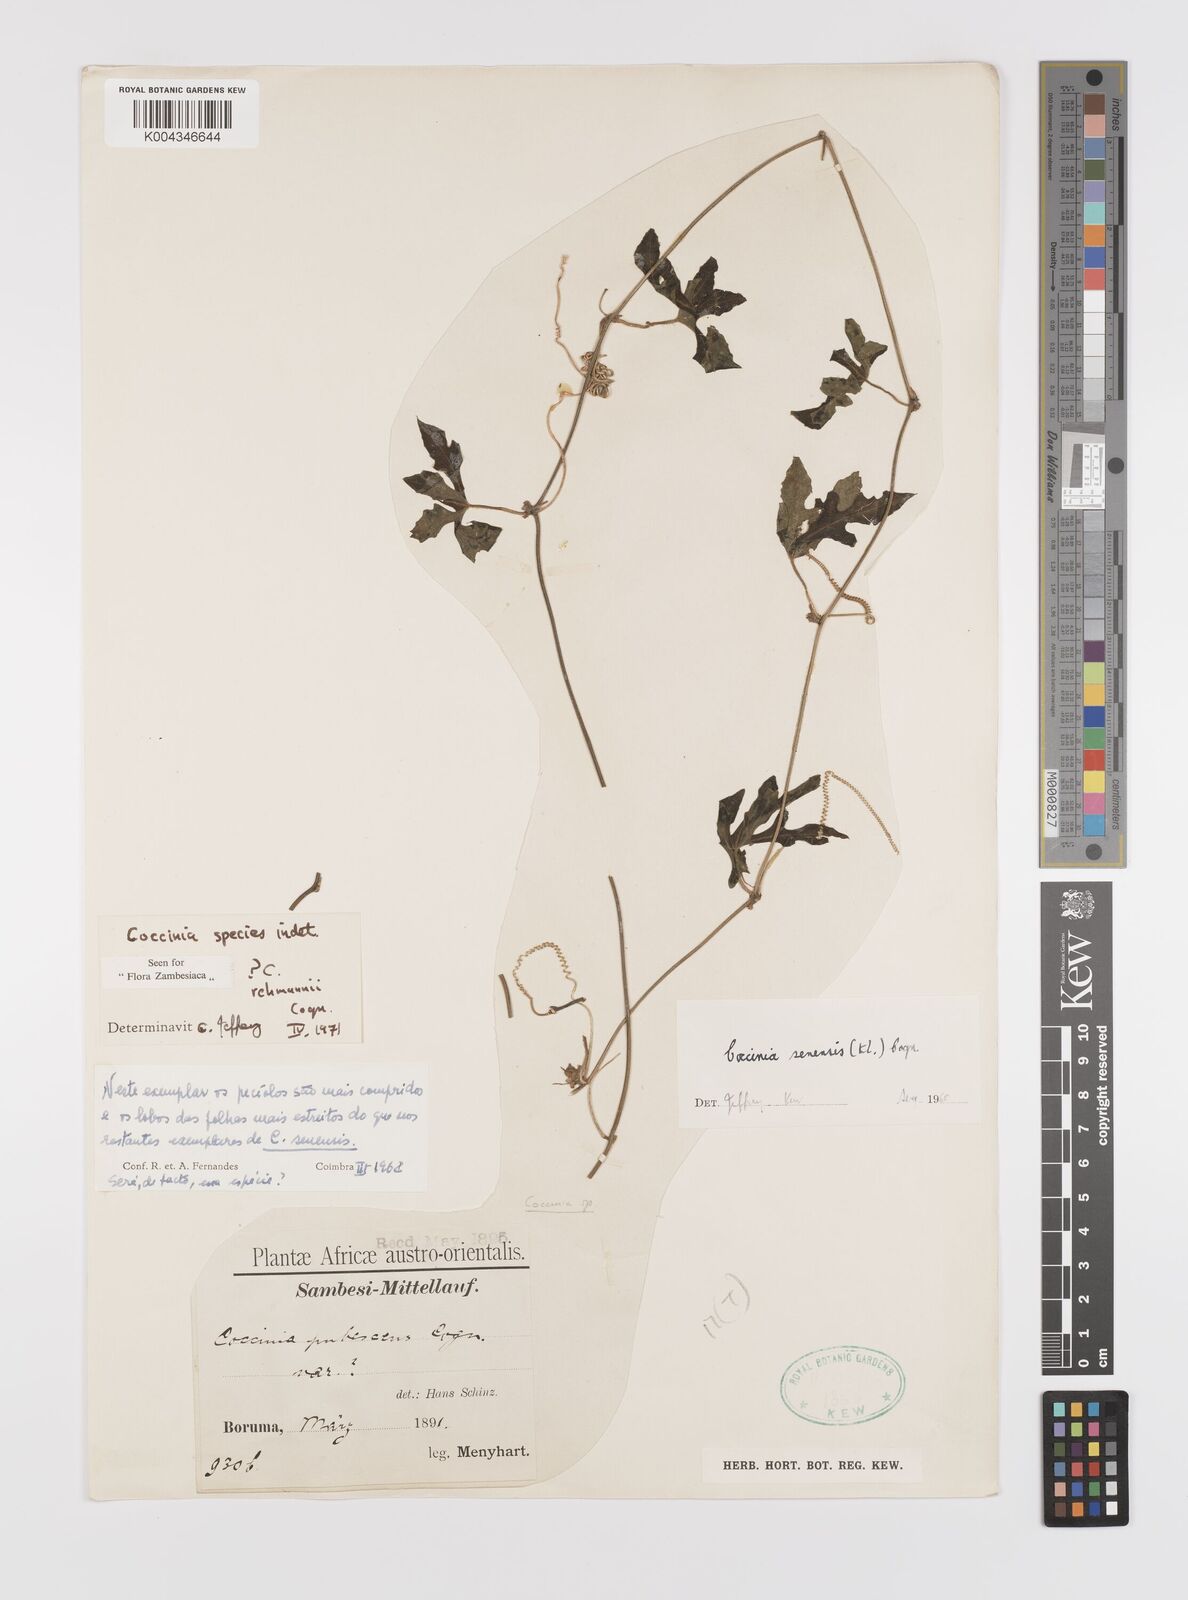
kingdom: Plantae
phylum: Tracheophyta
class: Magnoliopsida
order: Cucurbitales
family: Cucurbitaceae
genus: Coccinia
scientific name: Coccinia
